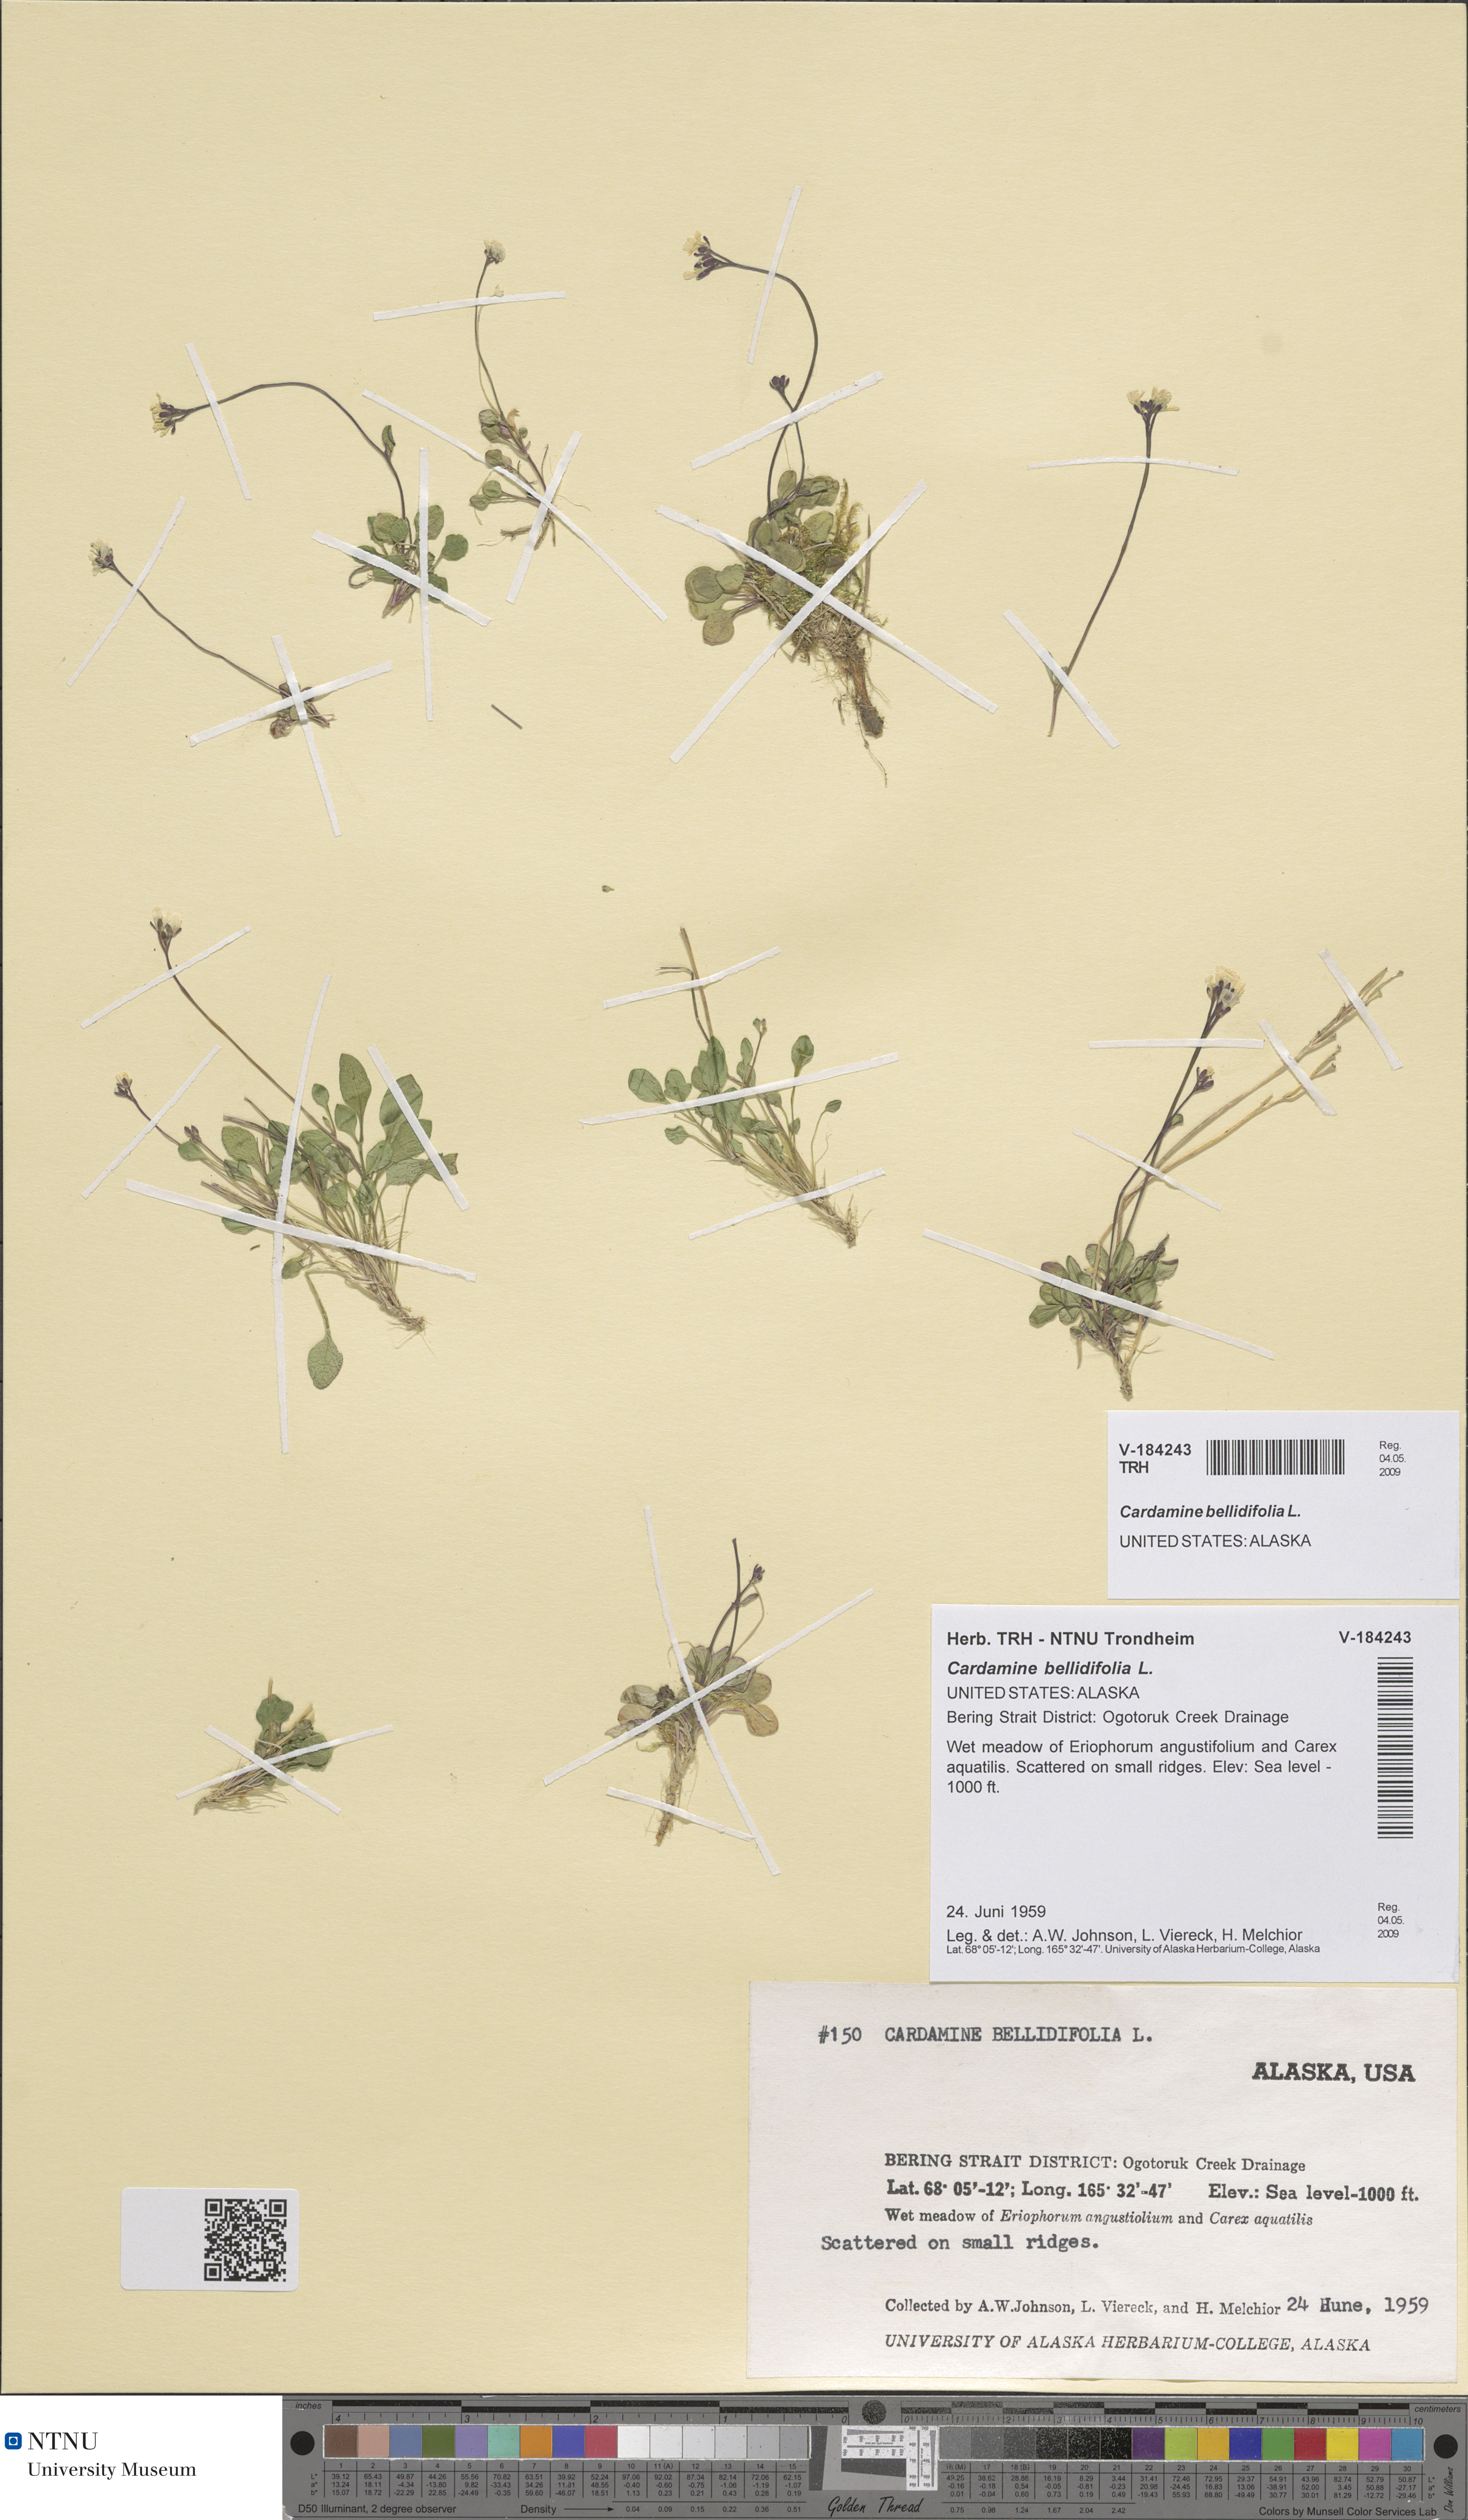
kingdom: Plantae
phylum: Tracheophyta
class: Magnoliopsida
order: Brassicales
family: Brassicaceae
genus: Cardamine
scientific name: Cardamine bellidifolia
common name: Alpine bittercress
